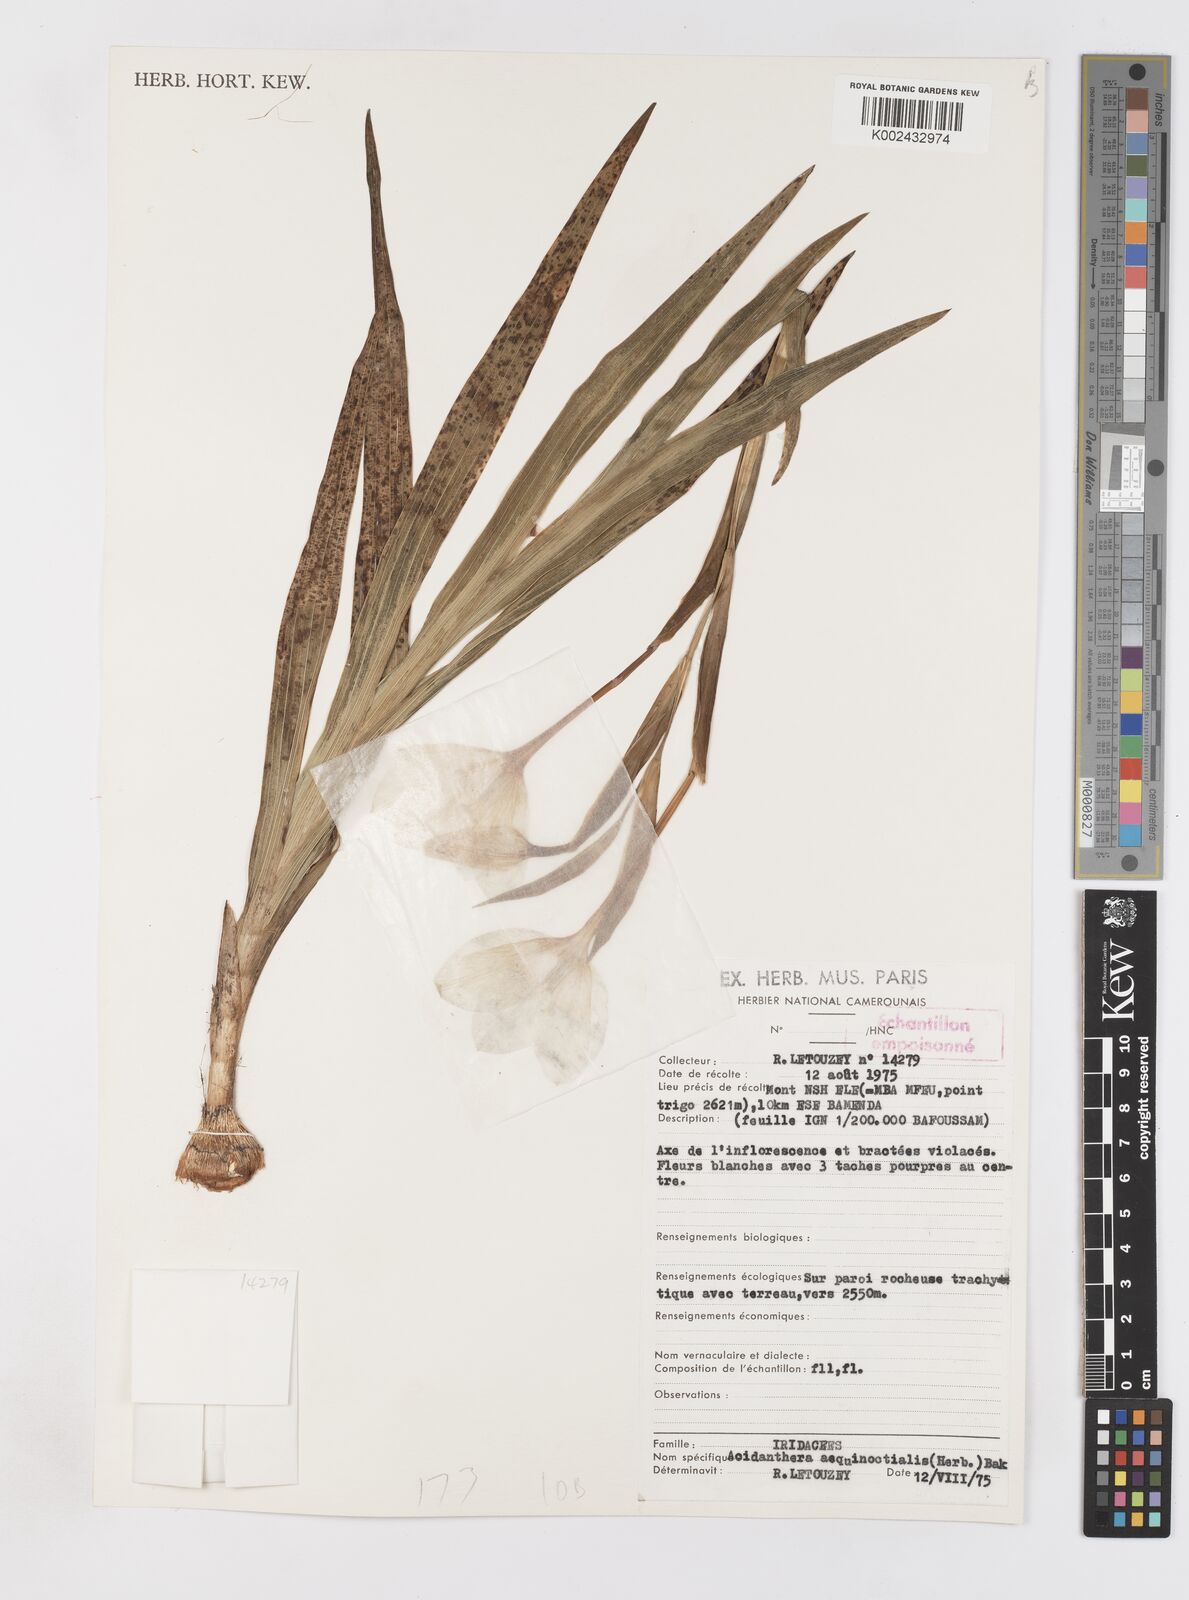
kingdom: Plantae
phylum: Tracheophyta
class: Liliopsida
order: Asparagales
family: Iridaceae
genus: Gladiolus
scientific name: Gladiolus aequinoctialis
